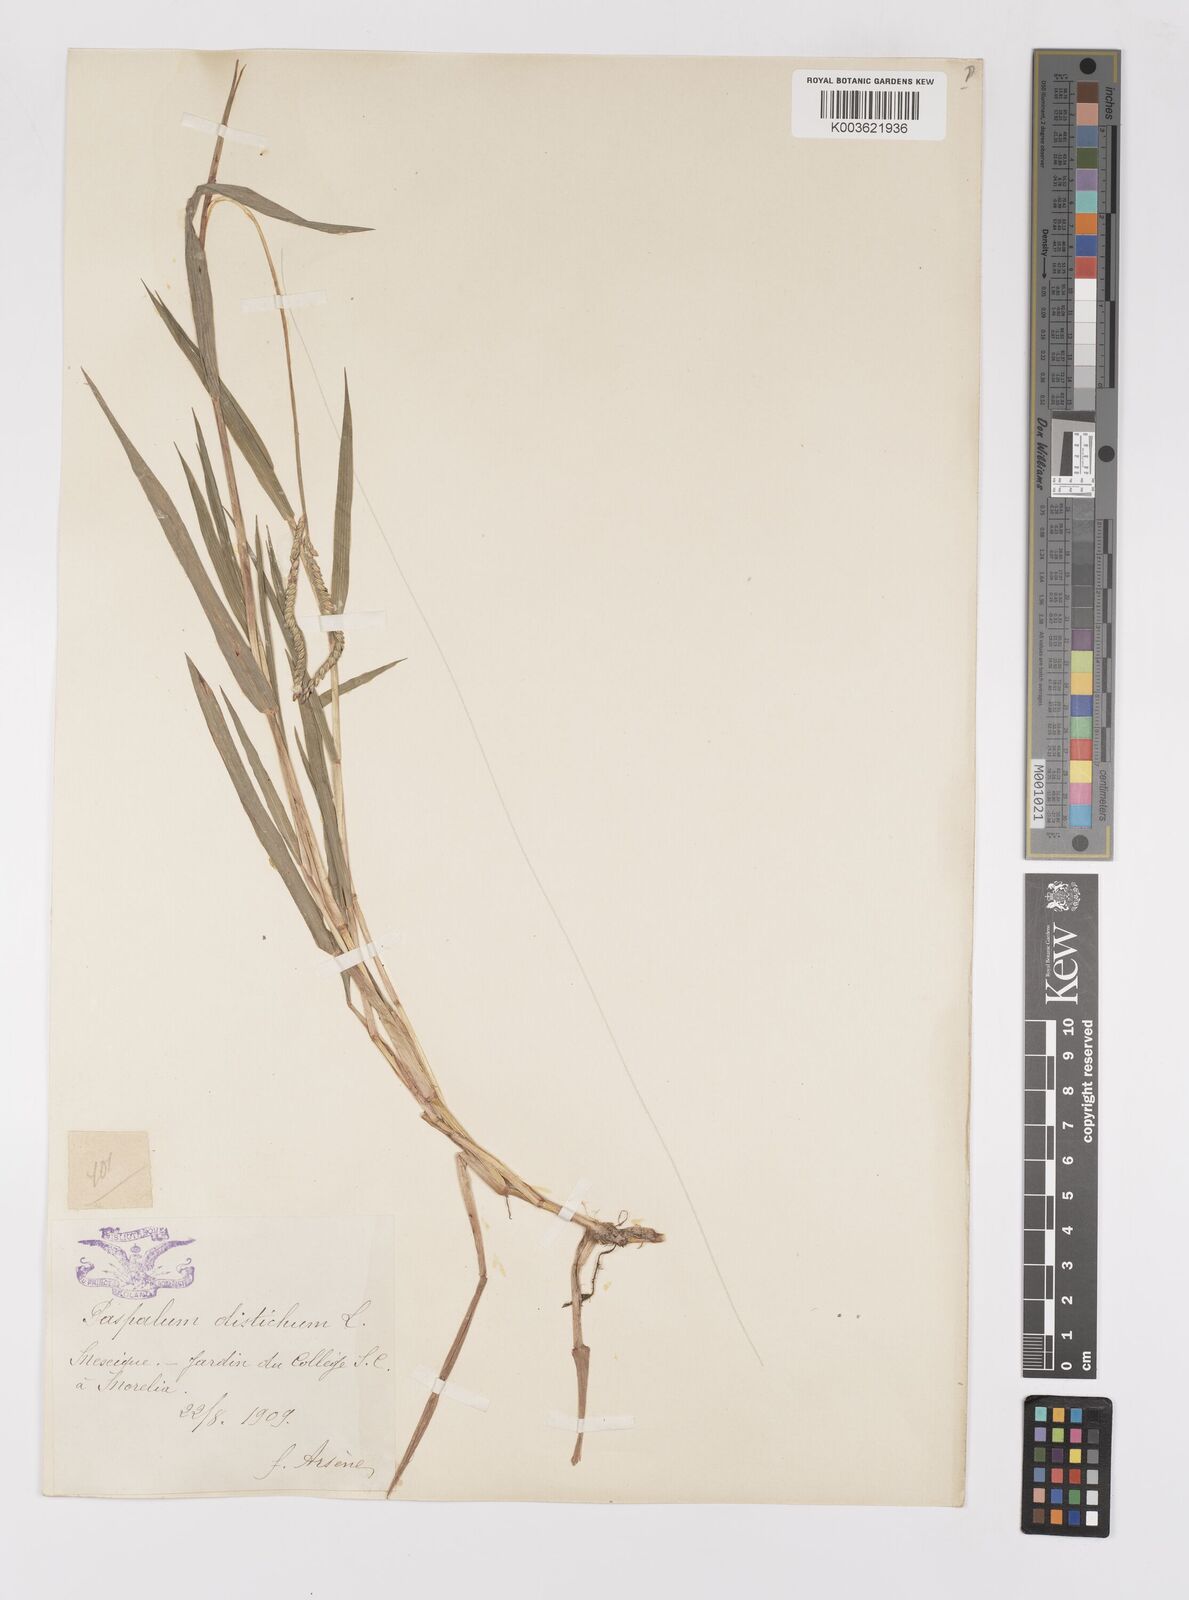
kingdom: Plantae
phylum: Tracheophyta
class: Liliopsida
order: Poales
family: Poaceae
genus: Paspalum
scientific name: Paspalum distichum
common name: Knotgrass
